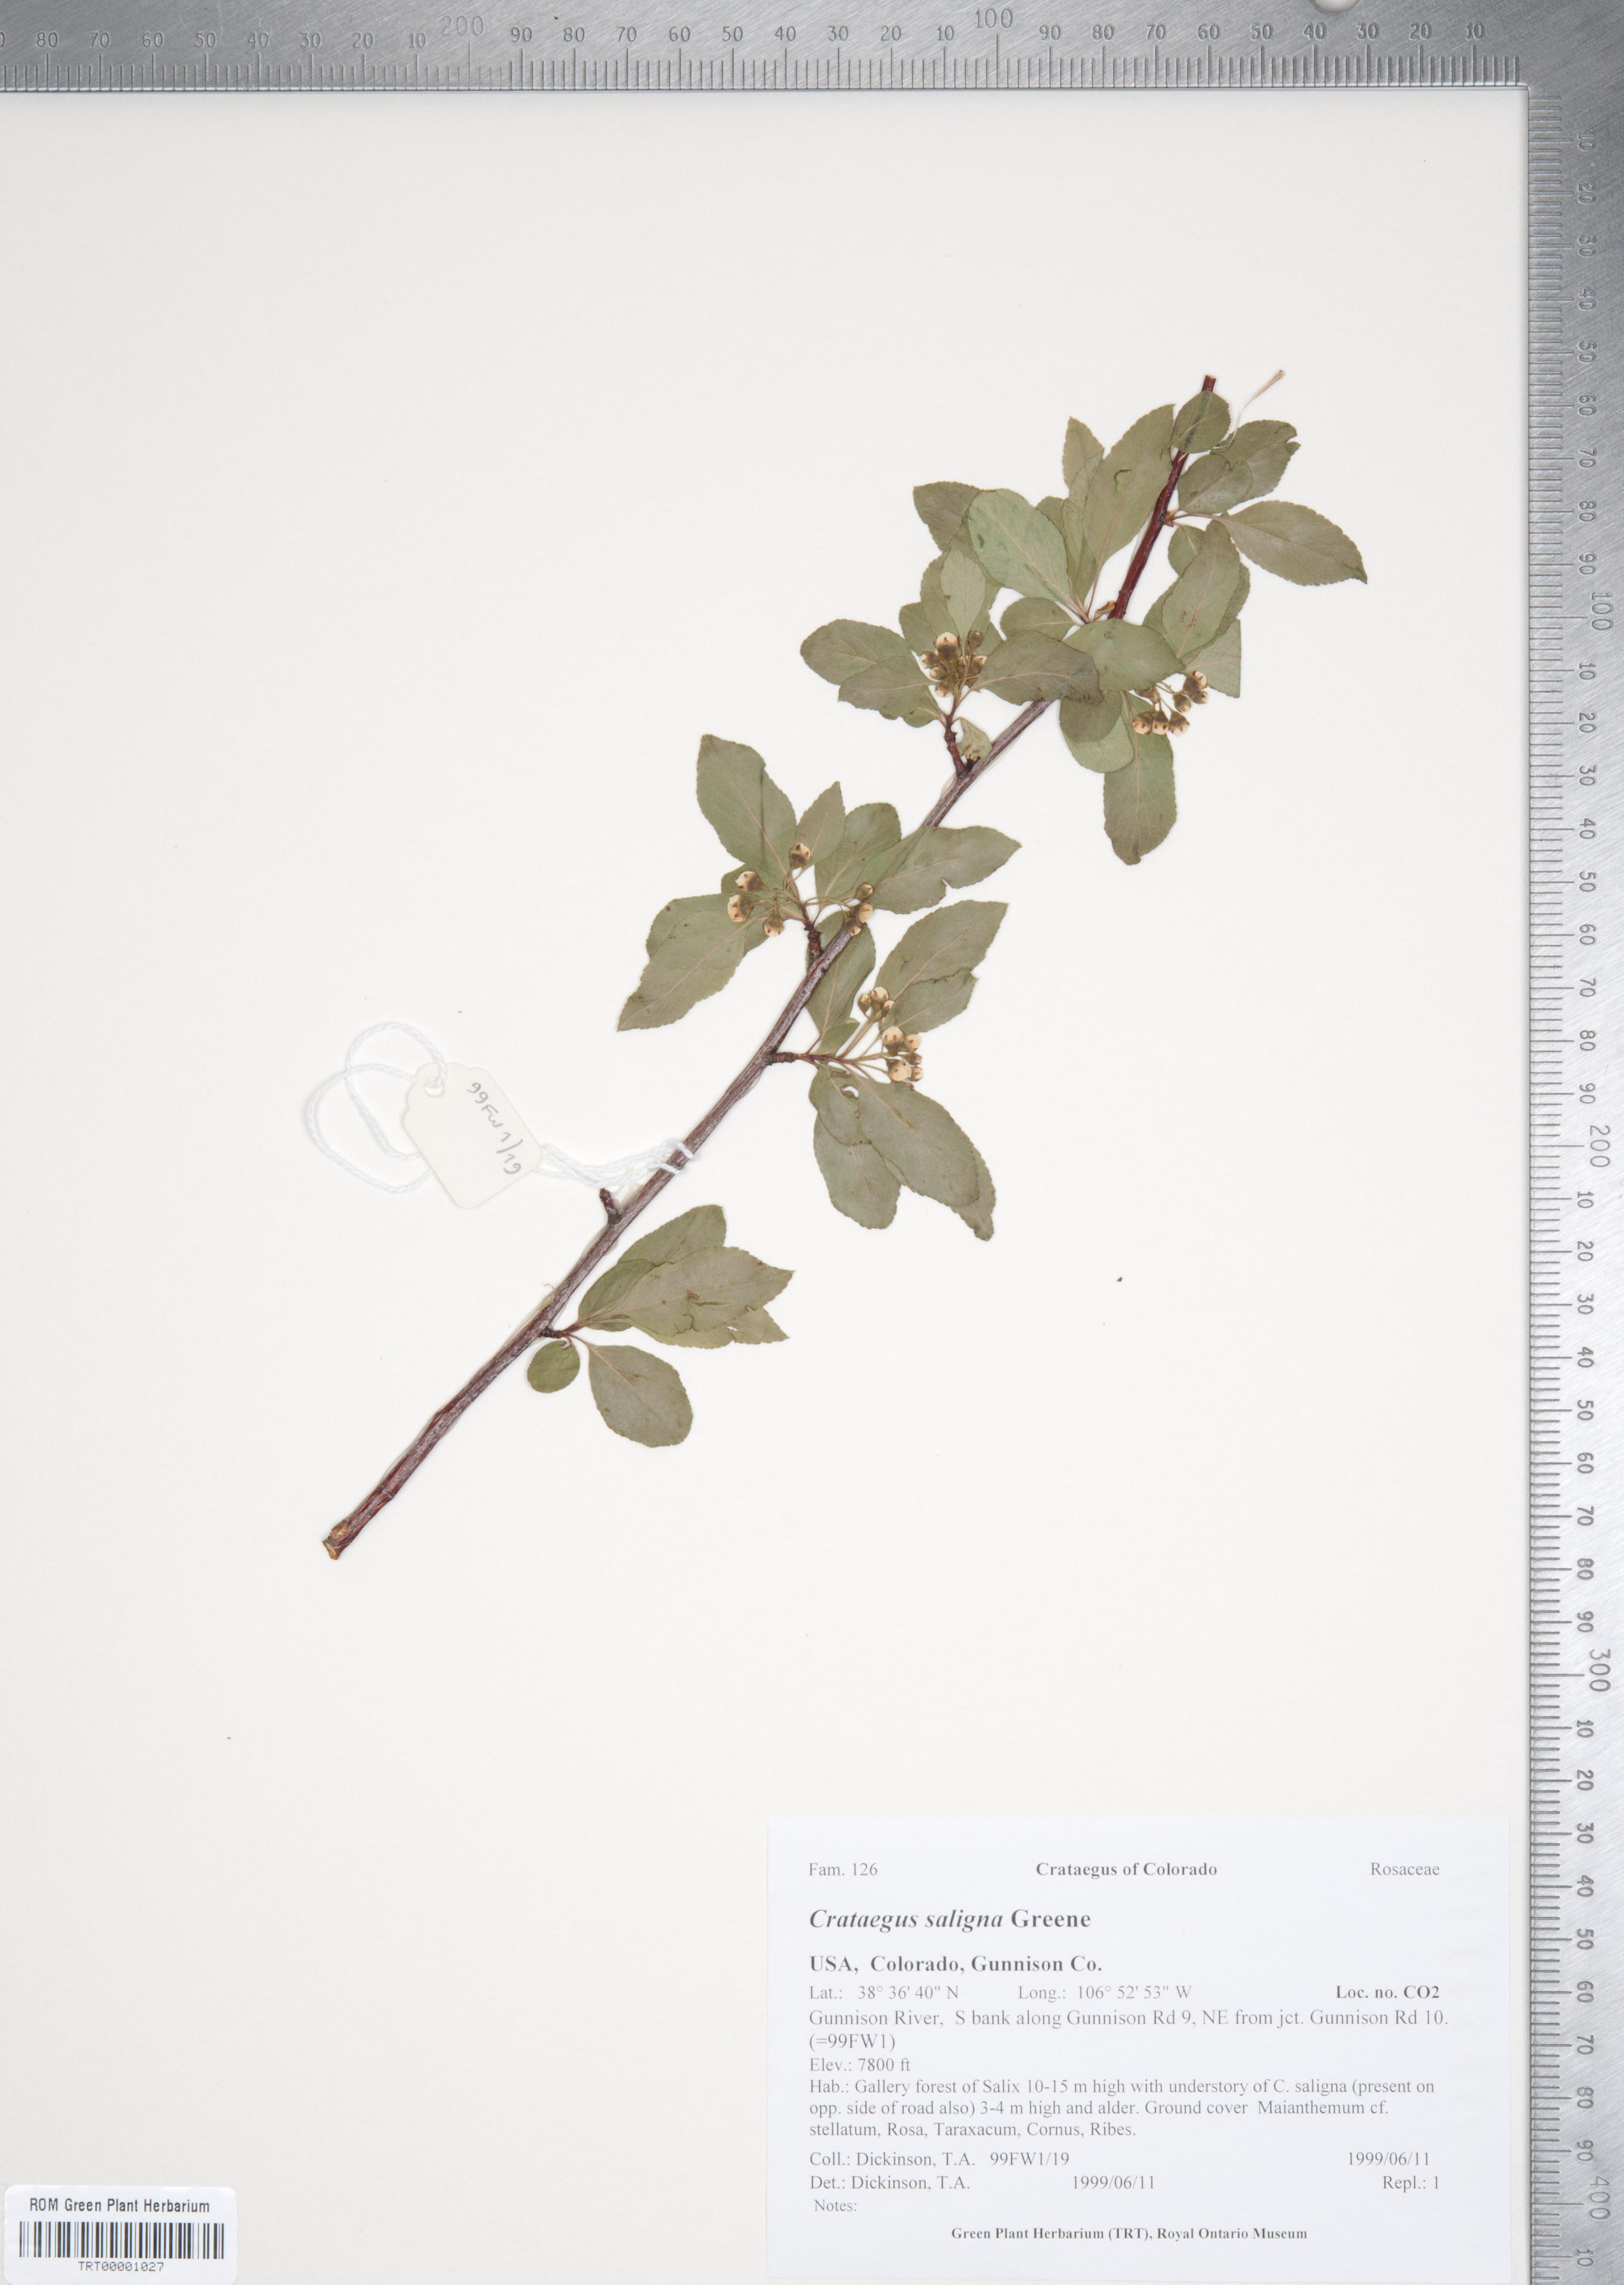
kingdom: Plantae
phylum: Tracheophyta
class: Magnoliopsida
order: Rosales
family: Rosaceae
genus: Crataegus
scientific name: Crataegus saligna
